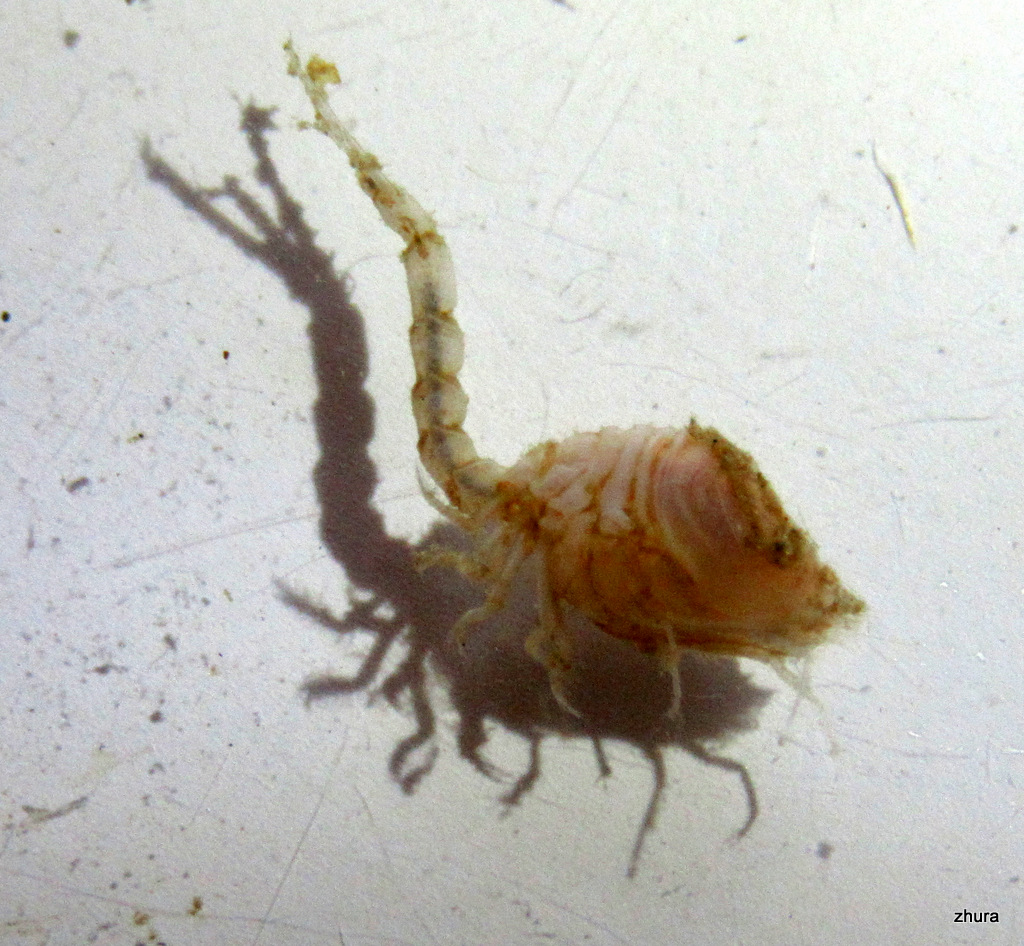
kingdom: Animalia
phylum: Arthropoda
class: Malacostraca
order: Cumacea
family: Diastylidae
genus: Diastylis
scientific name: Diastylis scorpioides
